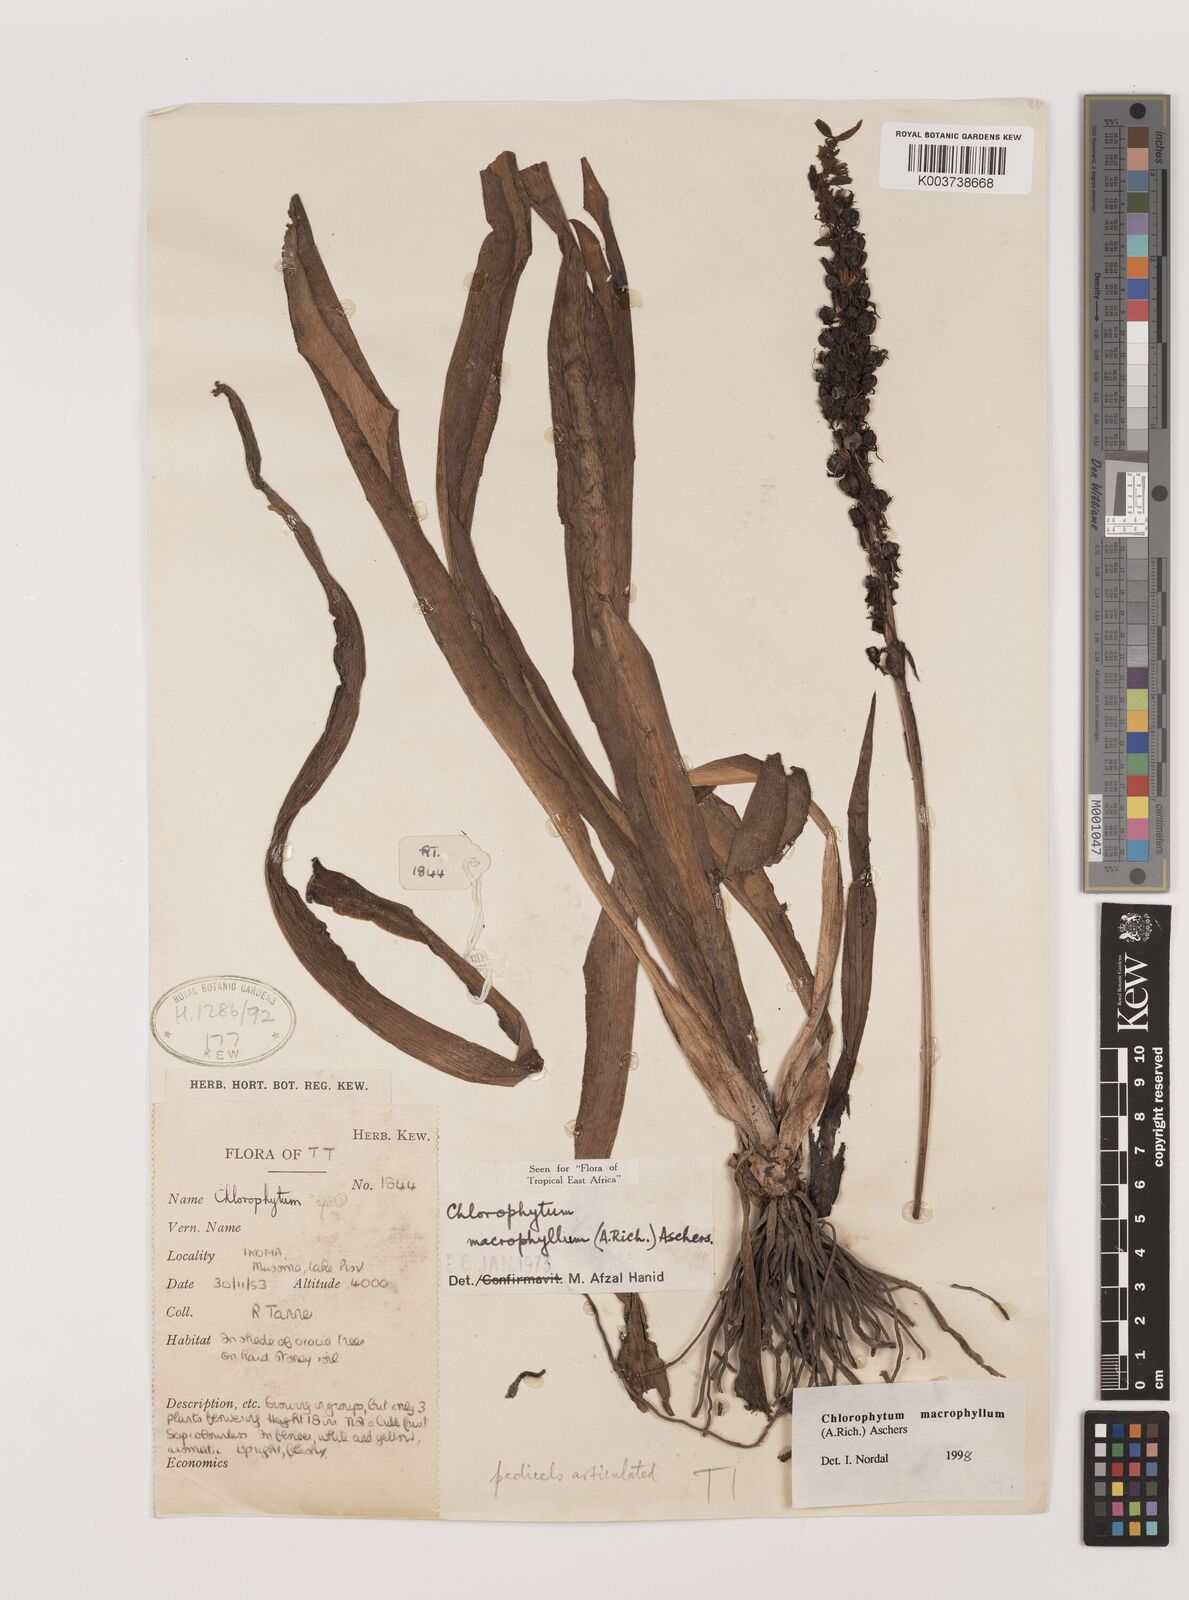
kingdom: Plantae
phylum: Tracheophyta
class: Liliopsida
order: Asparagales
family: Asparagaceae
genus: Chlorophytum
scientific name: Chlorophytum macrophyllum
